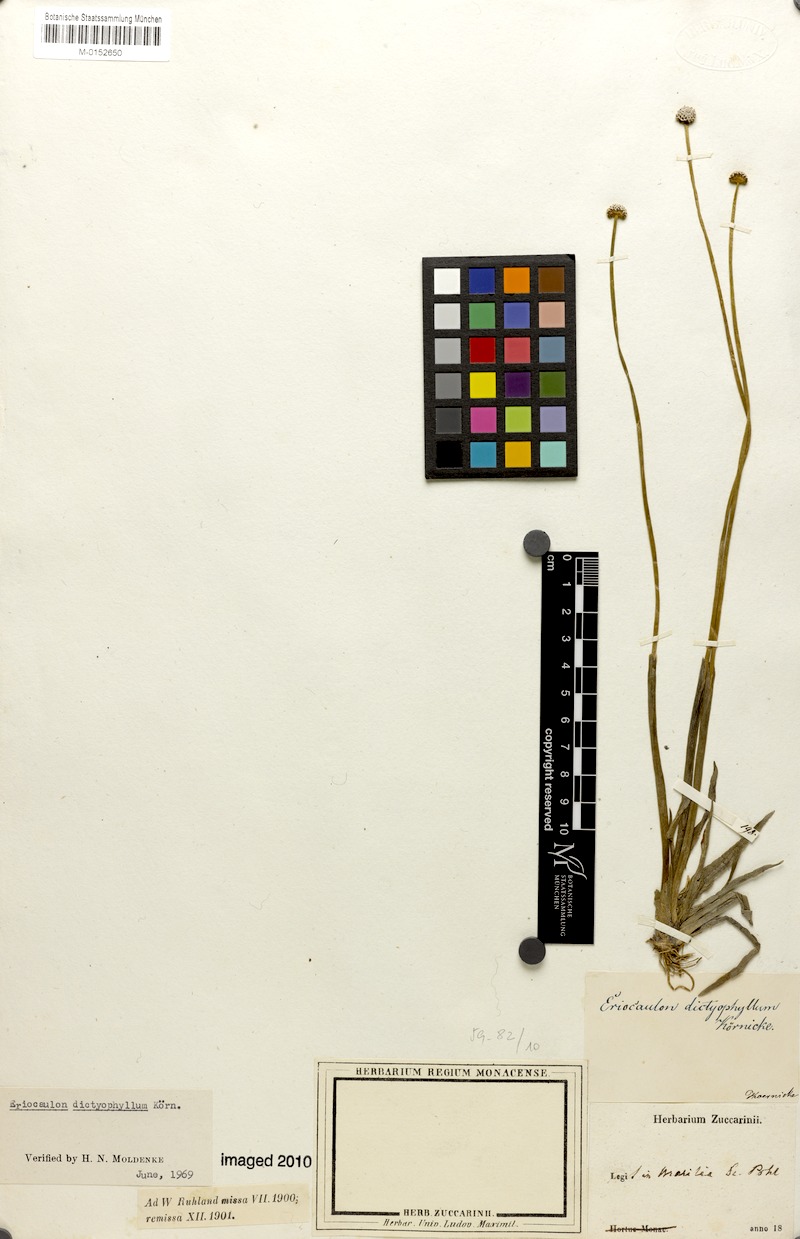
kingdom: Plantae
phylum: Tracheophyta
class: Liliopsida
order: Poales
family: Eriocaulaceae
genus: Eriocaulon
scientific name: Eriocaulon dictyophyllum
